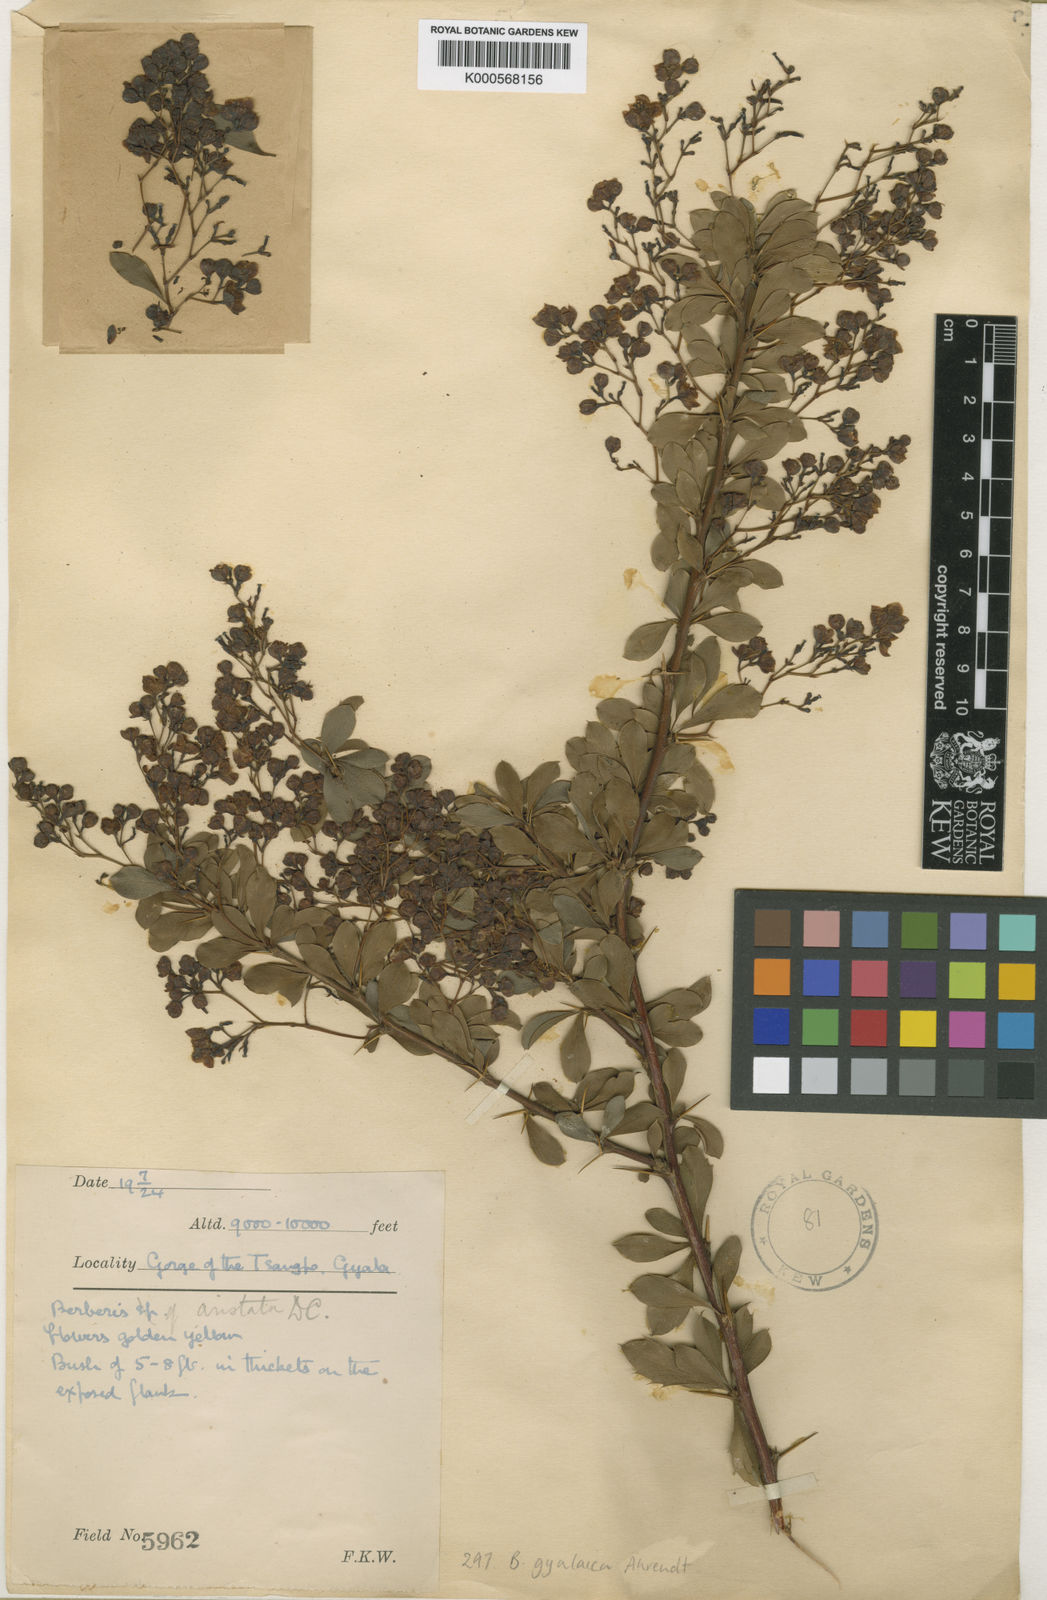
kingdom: Plantae
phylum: Tracheophyta
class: Magnoliopsida
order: Ranunculales
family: Berberidaceae
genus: Berberis
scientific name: Berberis
